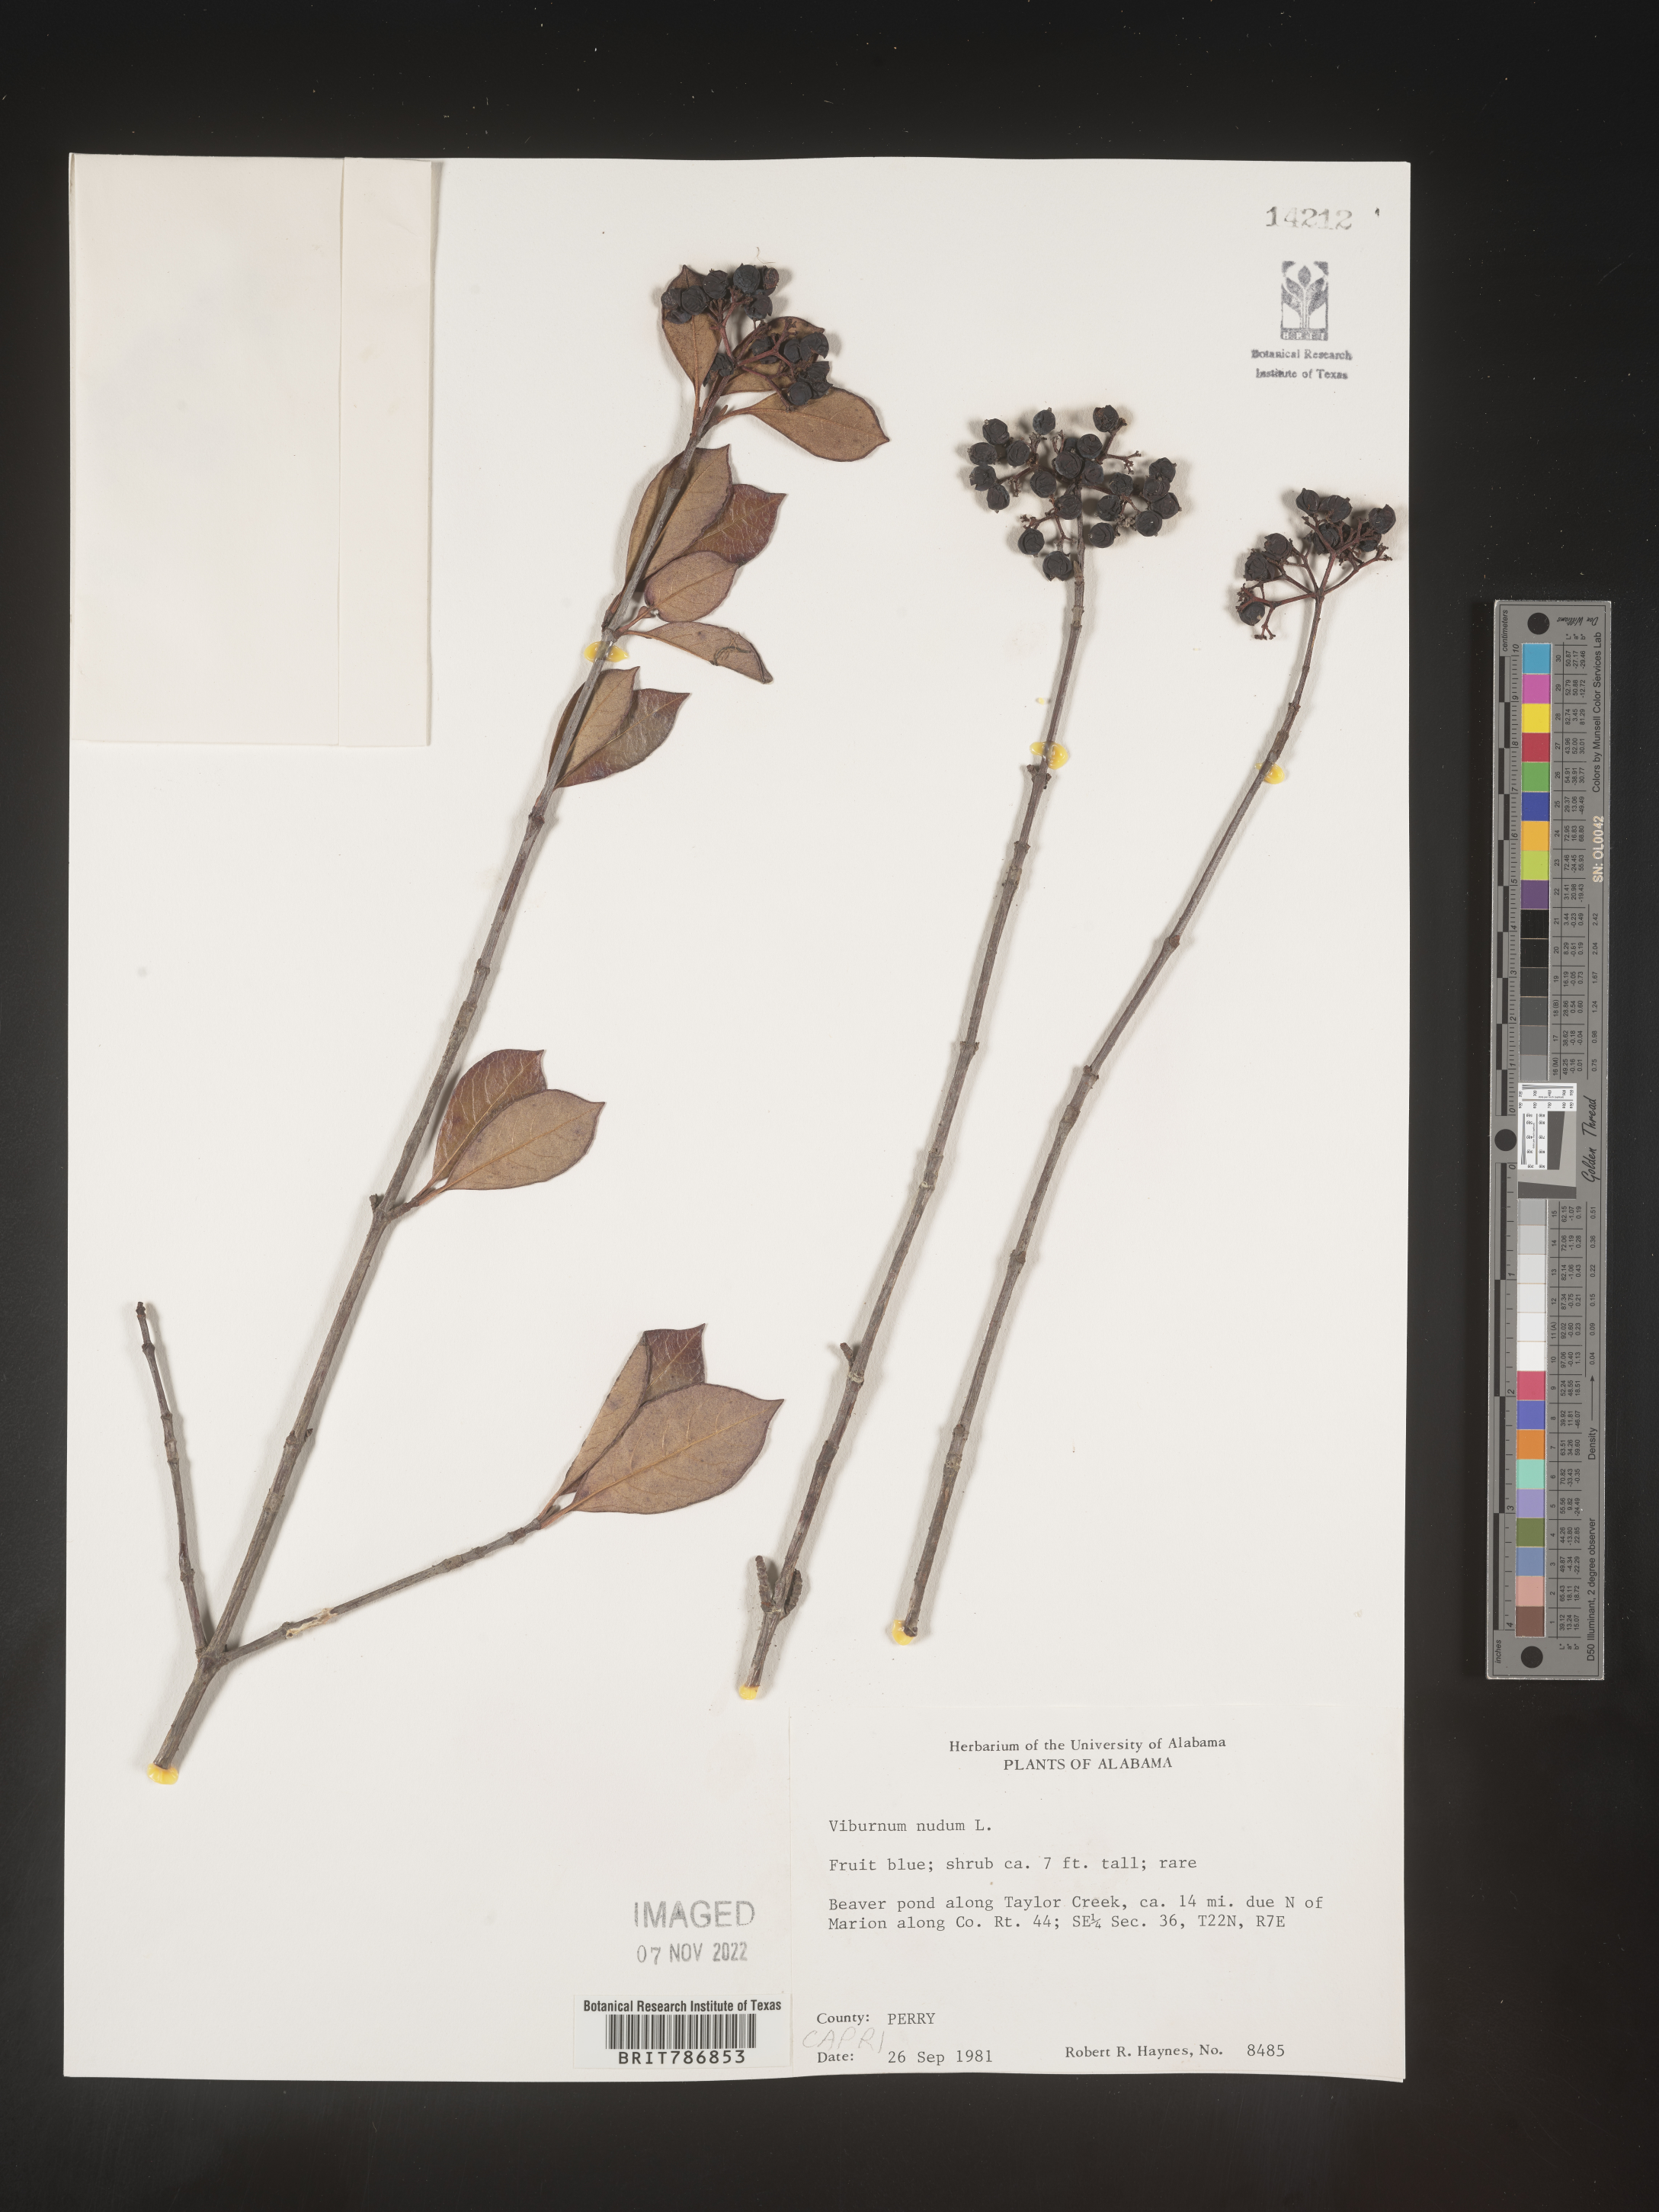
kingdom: Plantae
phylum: Tracheophyta
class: Magnoliopsida
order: Dipsacales
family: Viburnaceae
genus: Viburnum
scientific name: Viburnum nudum
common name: Possum haw
